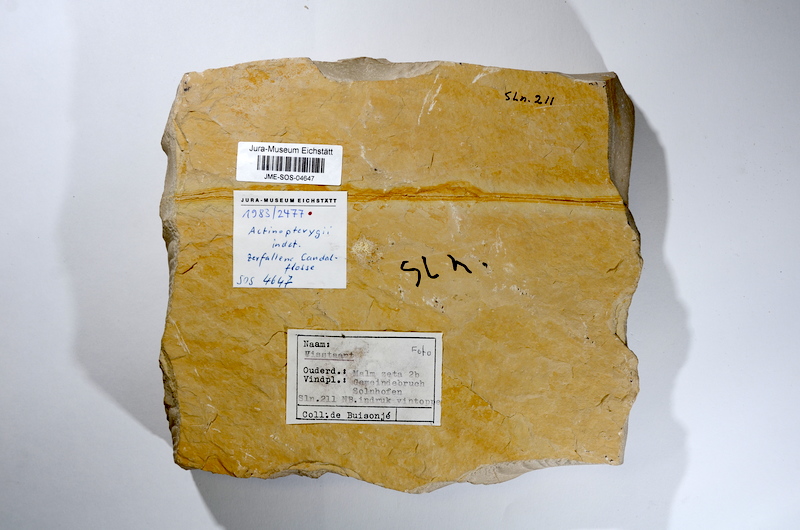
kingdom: Animalia
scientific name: Animalia
